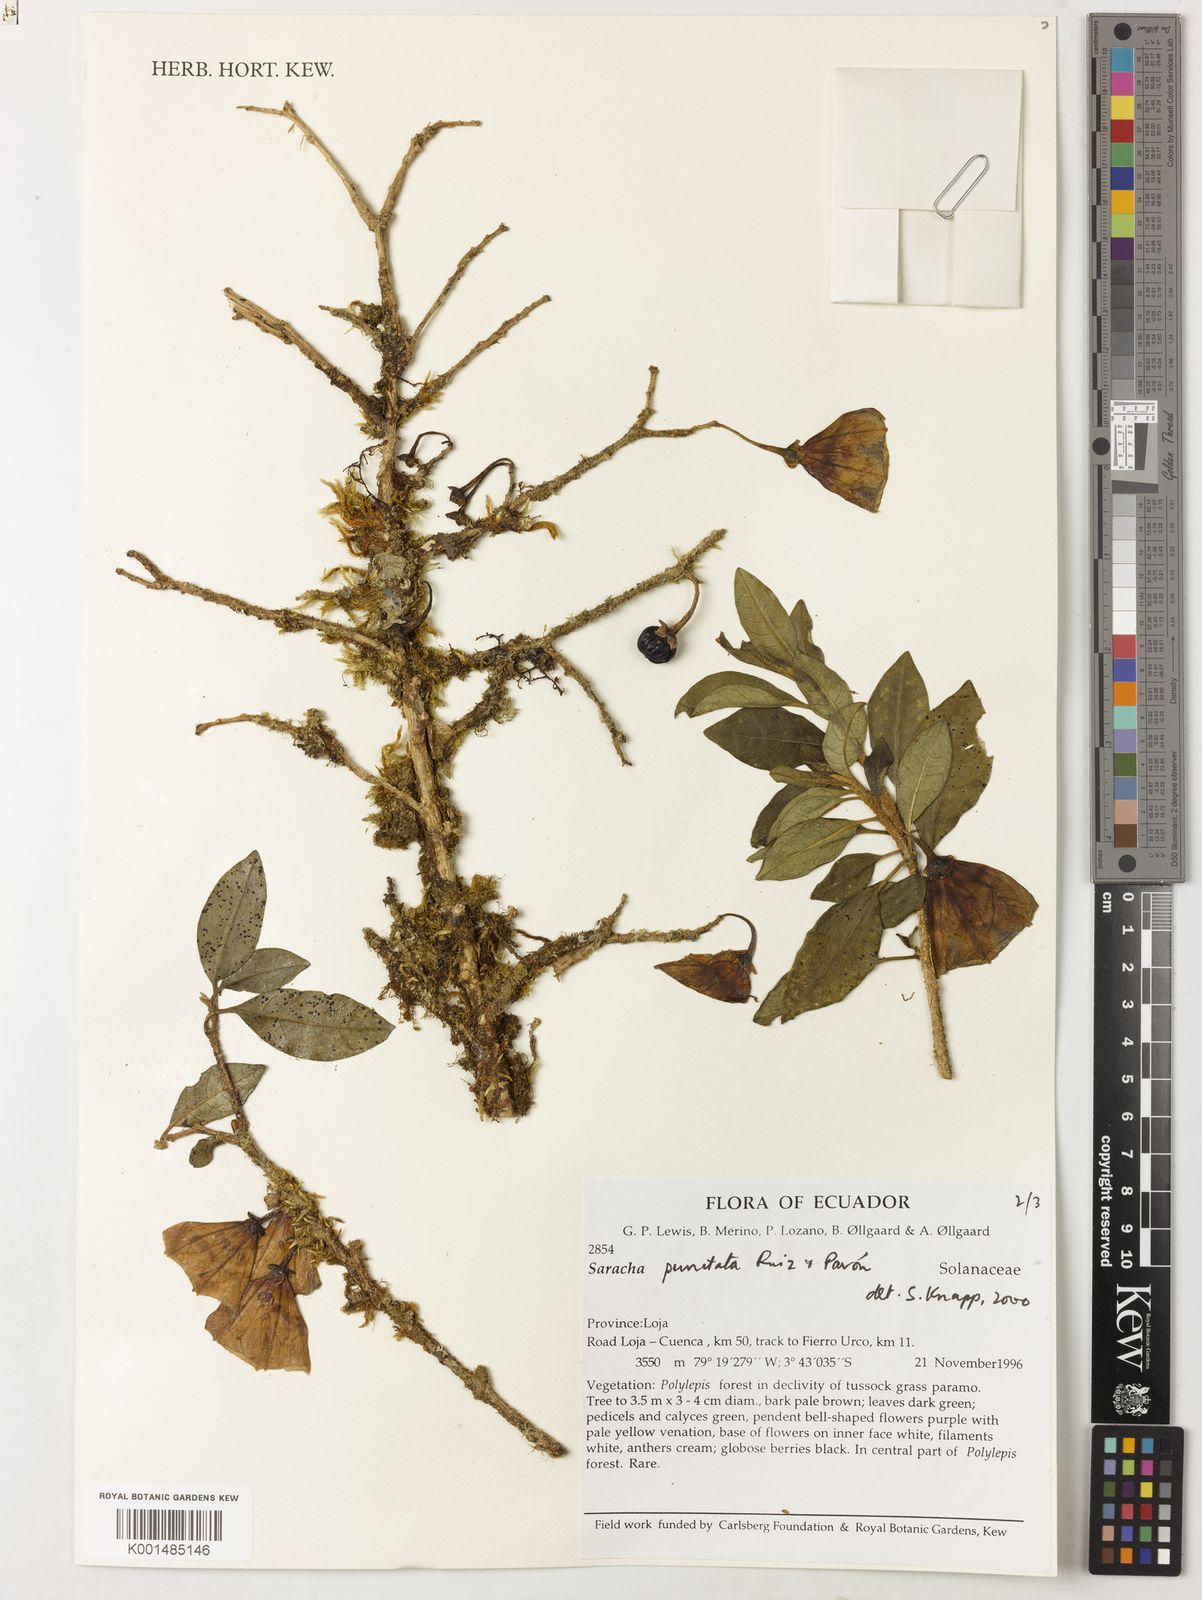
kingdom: Plantae
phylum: Tracheophyta
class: Magnoliopsida
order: Solanales
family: Solanaceae
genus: Saracha
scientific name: Saracha punctata
